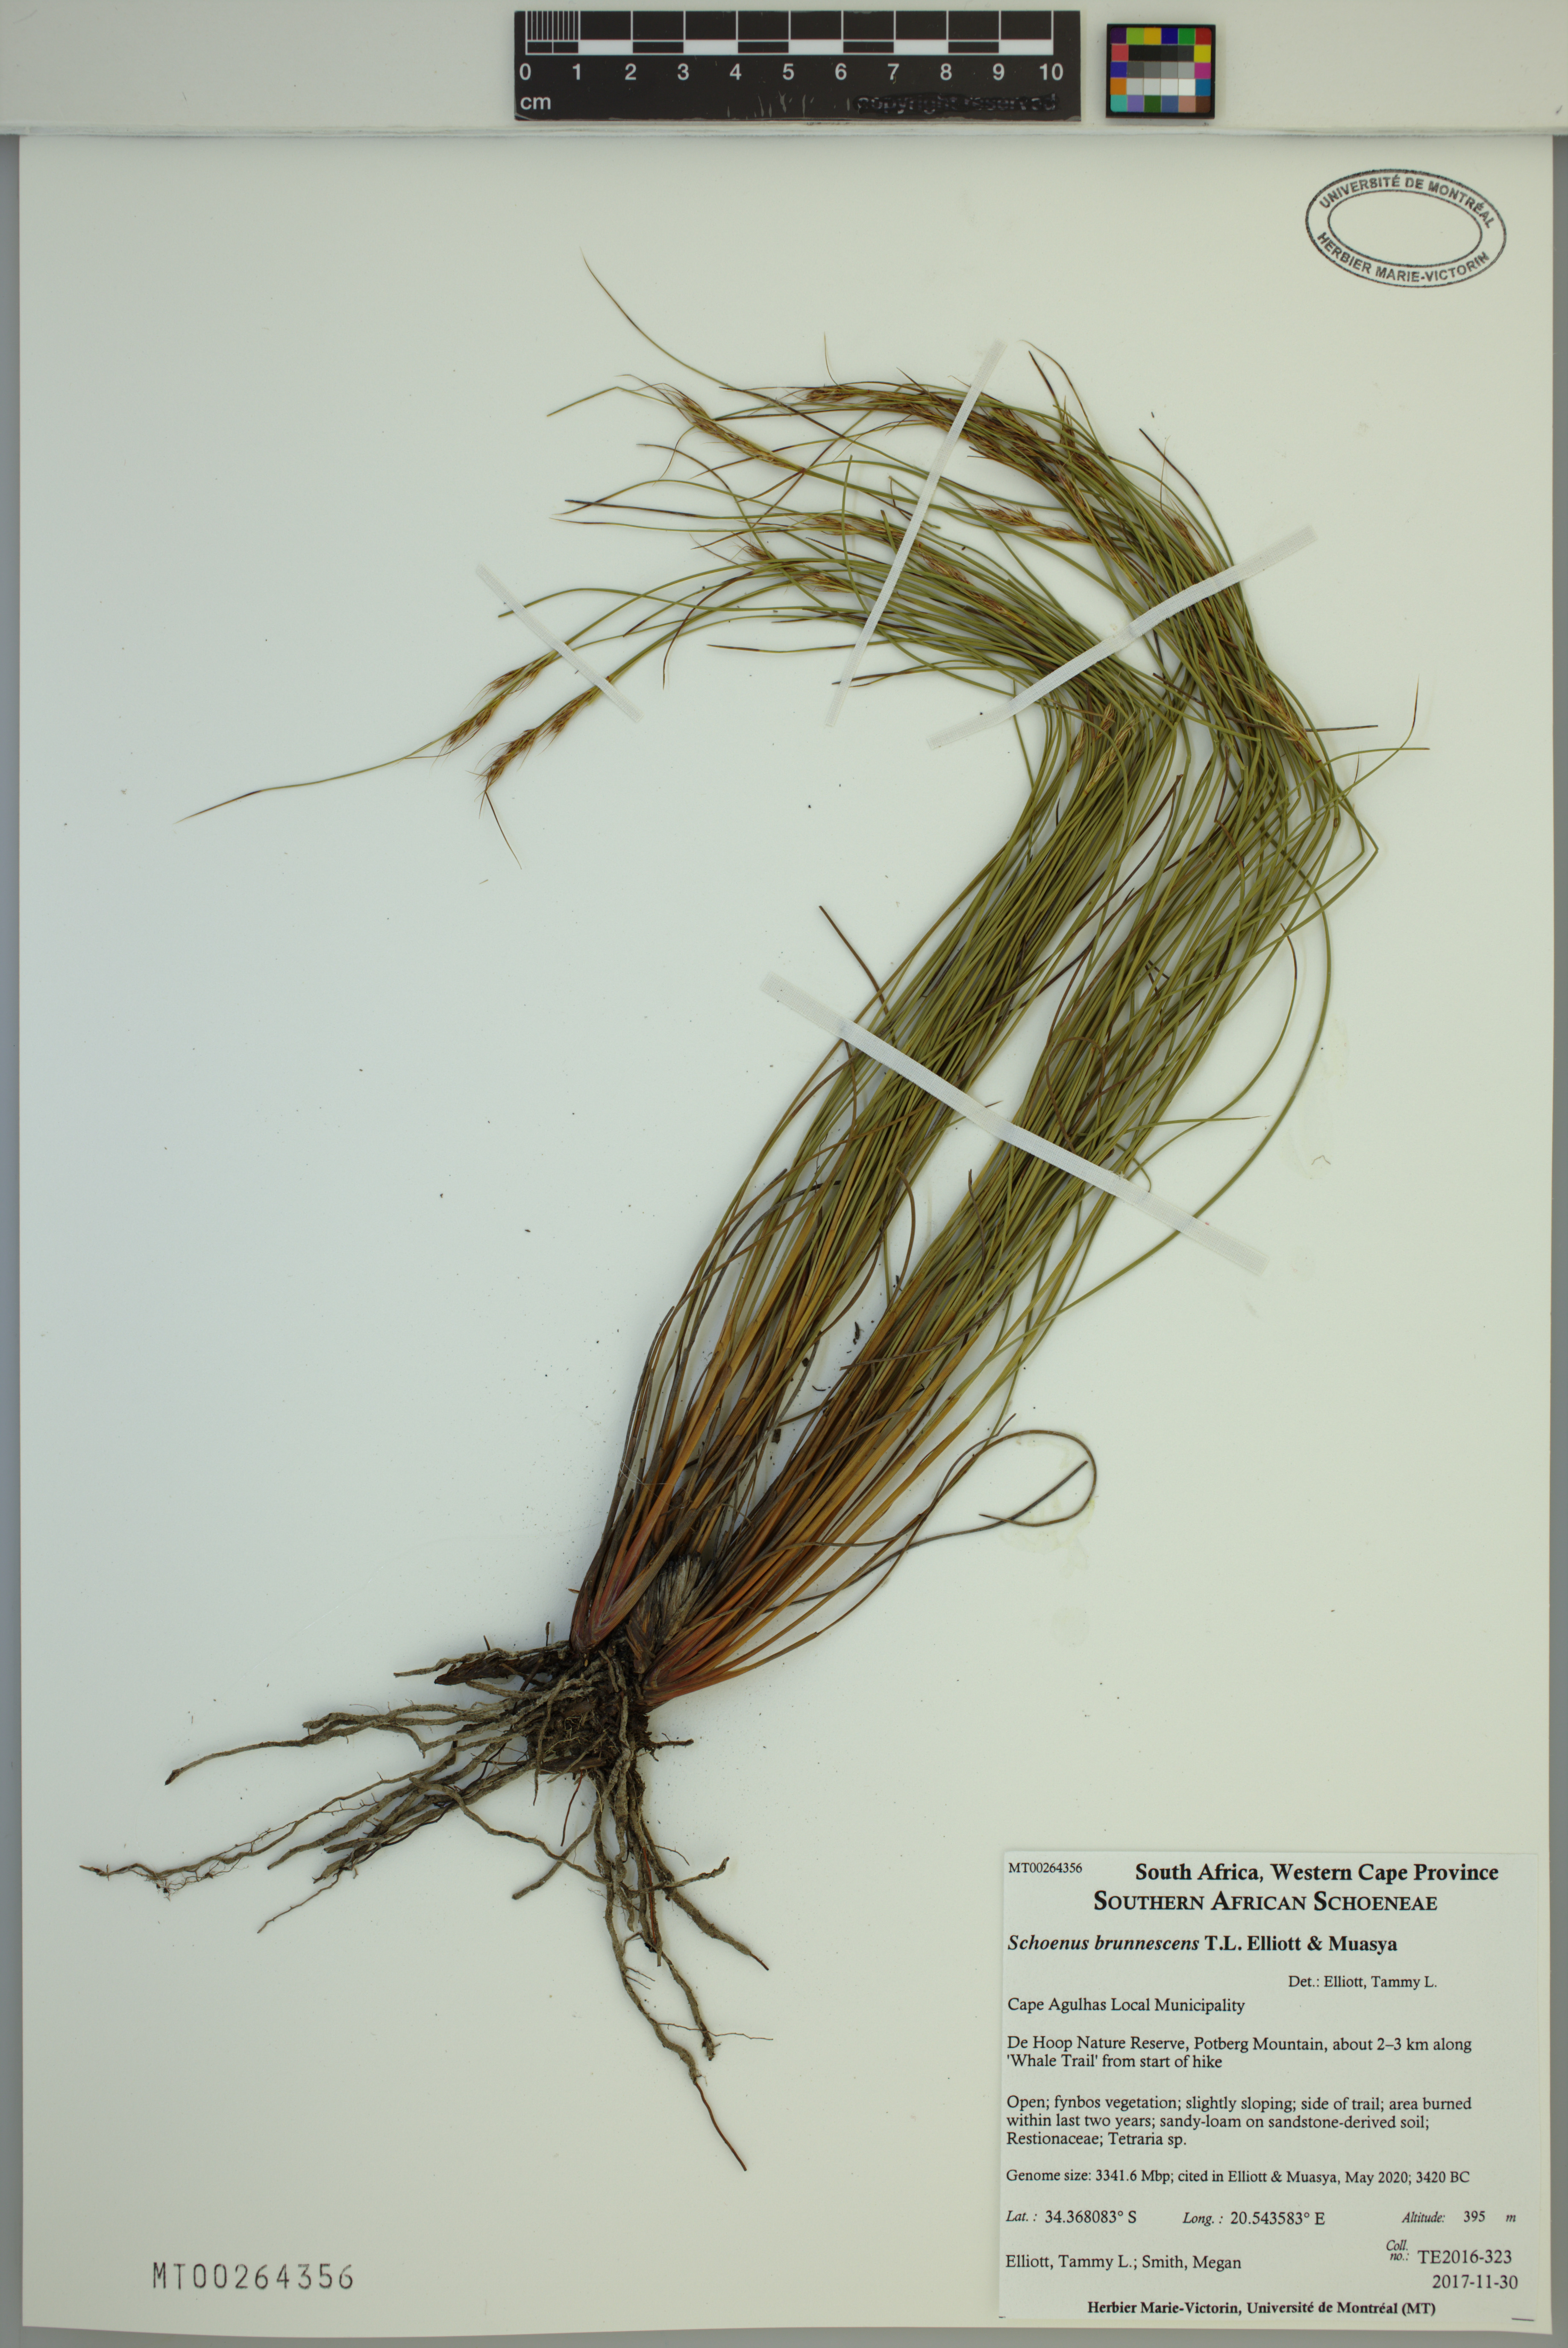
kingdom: Plantae
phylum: Tracheophyta
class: Liliopsida
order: Poales
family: Cyperaceae
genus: Schoenus
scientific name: Schoenus brunnescens
